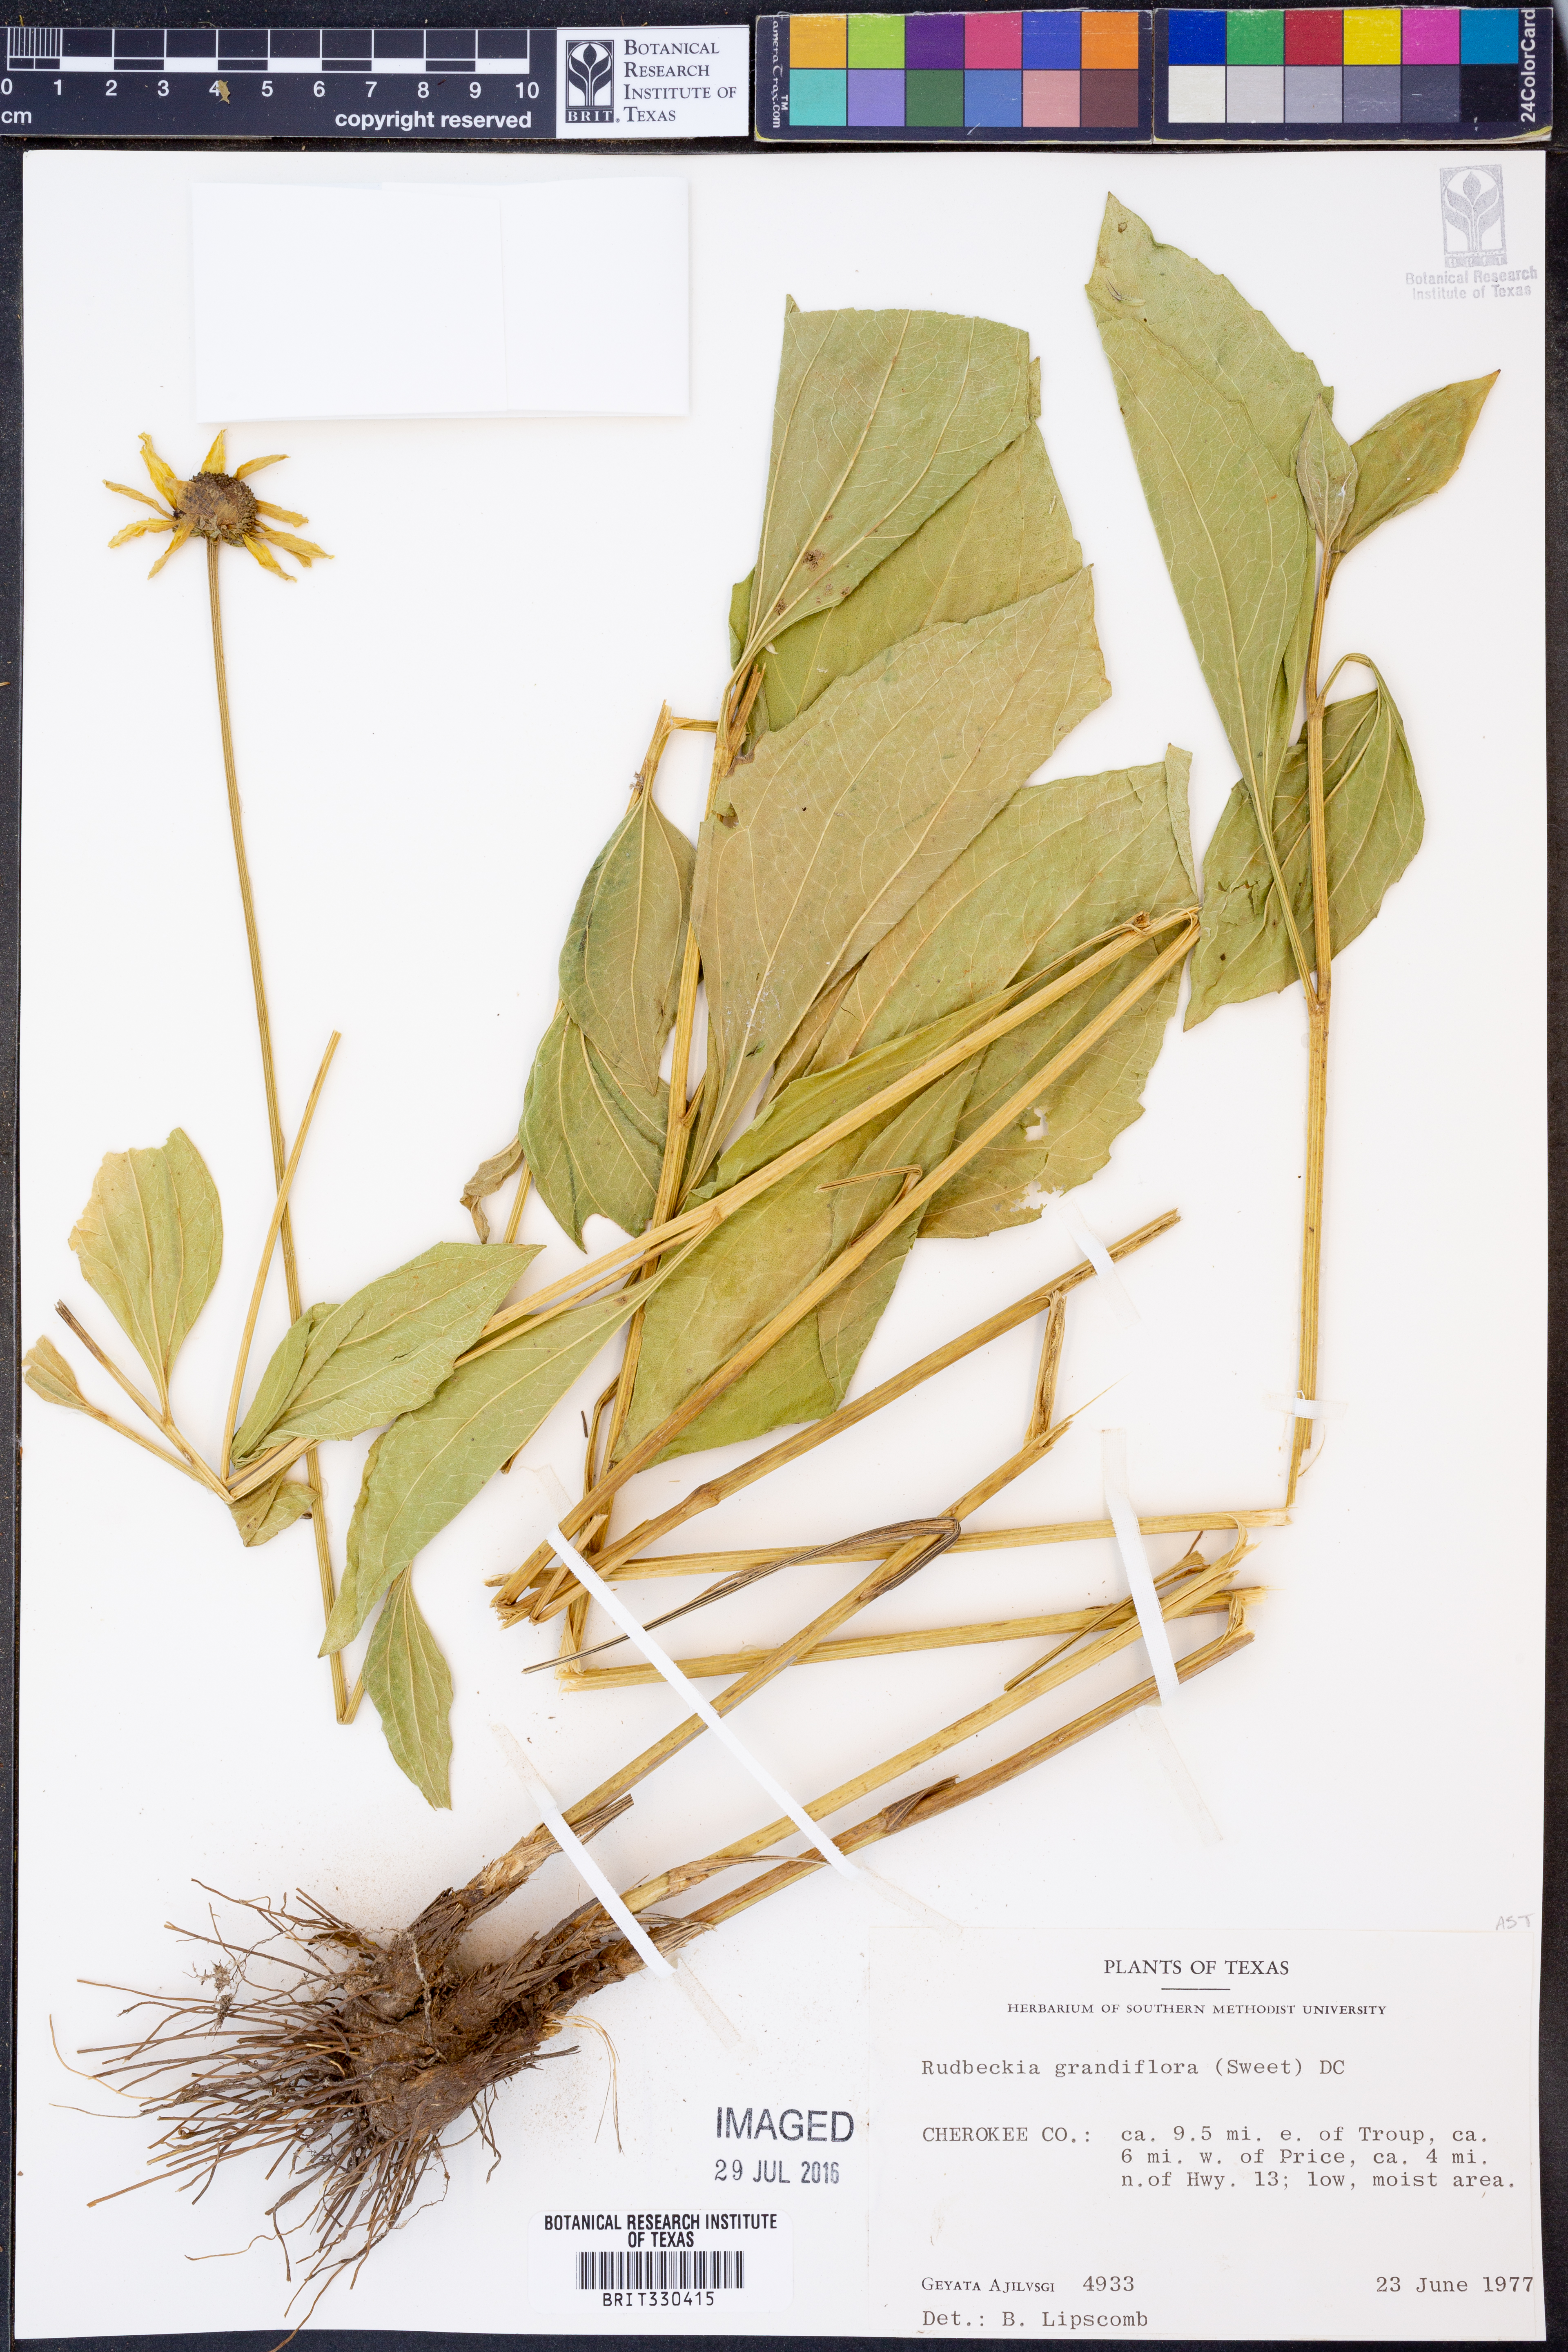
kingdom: Plantae
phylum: Tracheophyta
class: Magnoliopsida
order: Asterales
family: Asteraceae
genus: Rudbeckia
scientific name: Rudbeckia grandiflora
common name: Large-flowered coneflower
